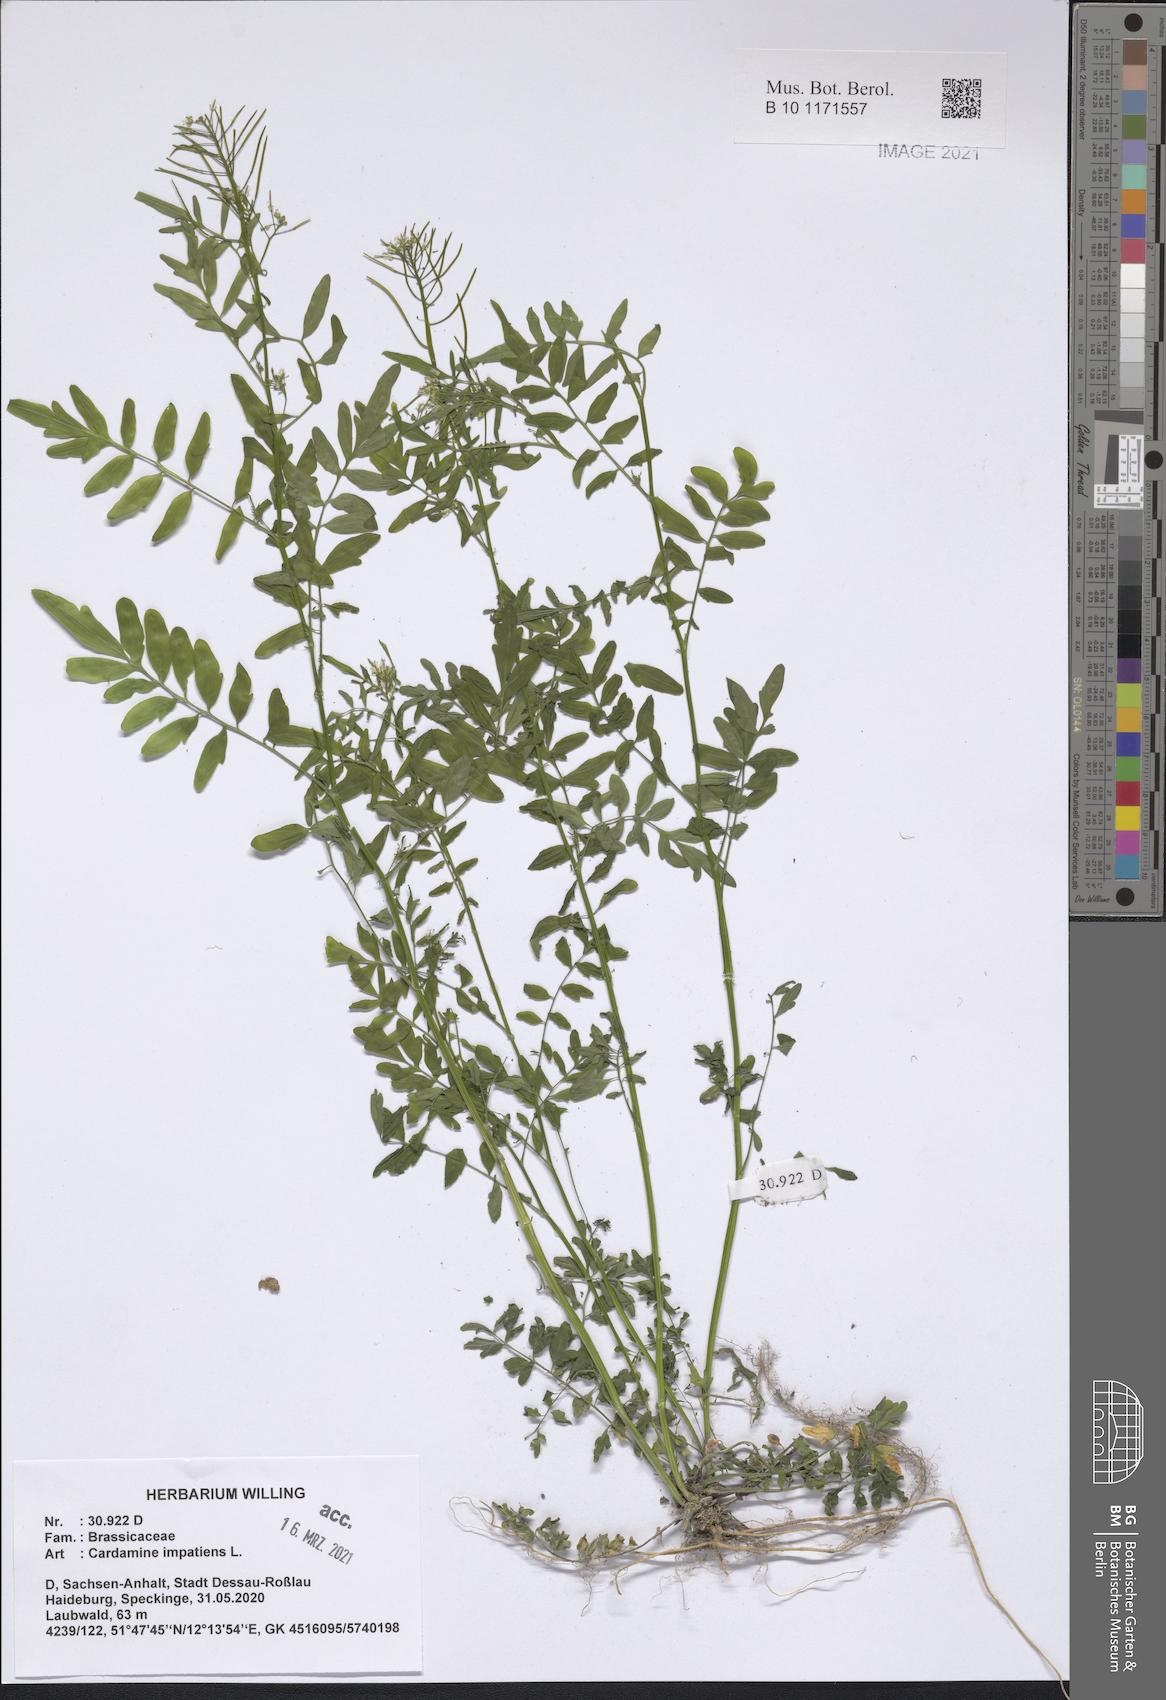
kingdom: Plantae
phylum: Tracheophyta
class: Magnoliopsida
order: Brassicales
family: Brassicaceae
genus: Cardamine
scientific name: Cardamine impatiens
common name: Narrow-leaved bitter-cress
